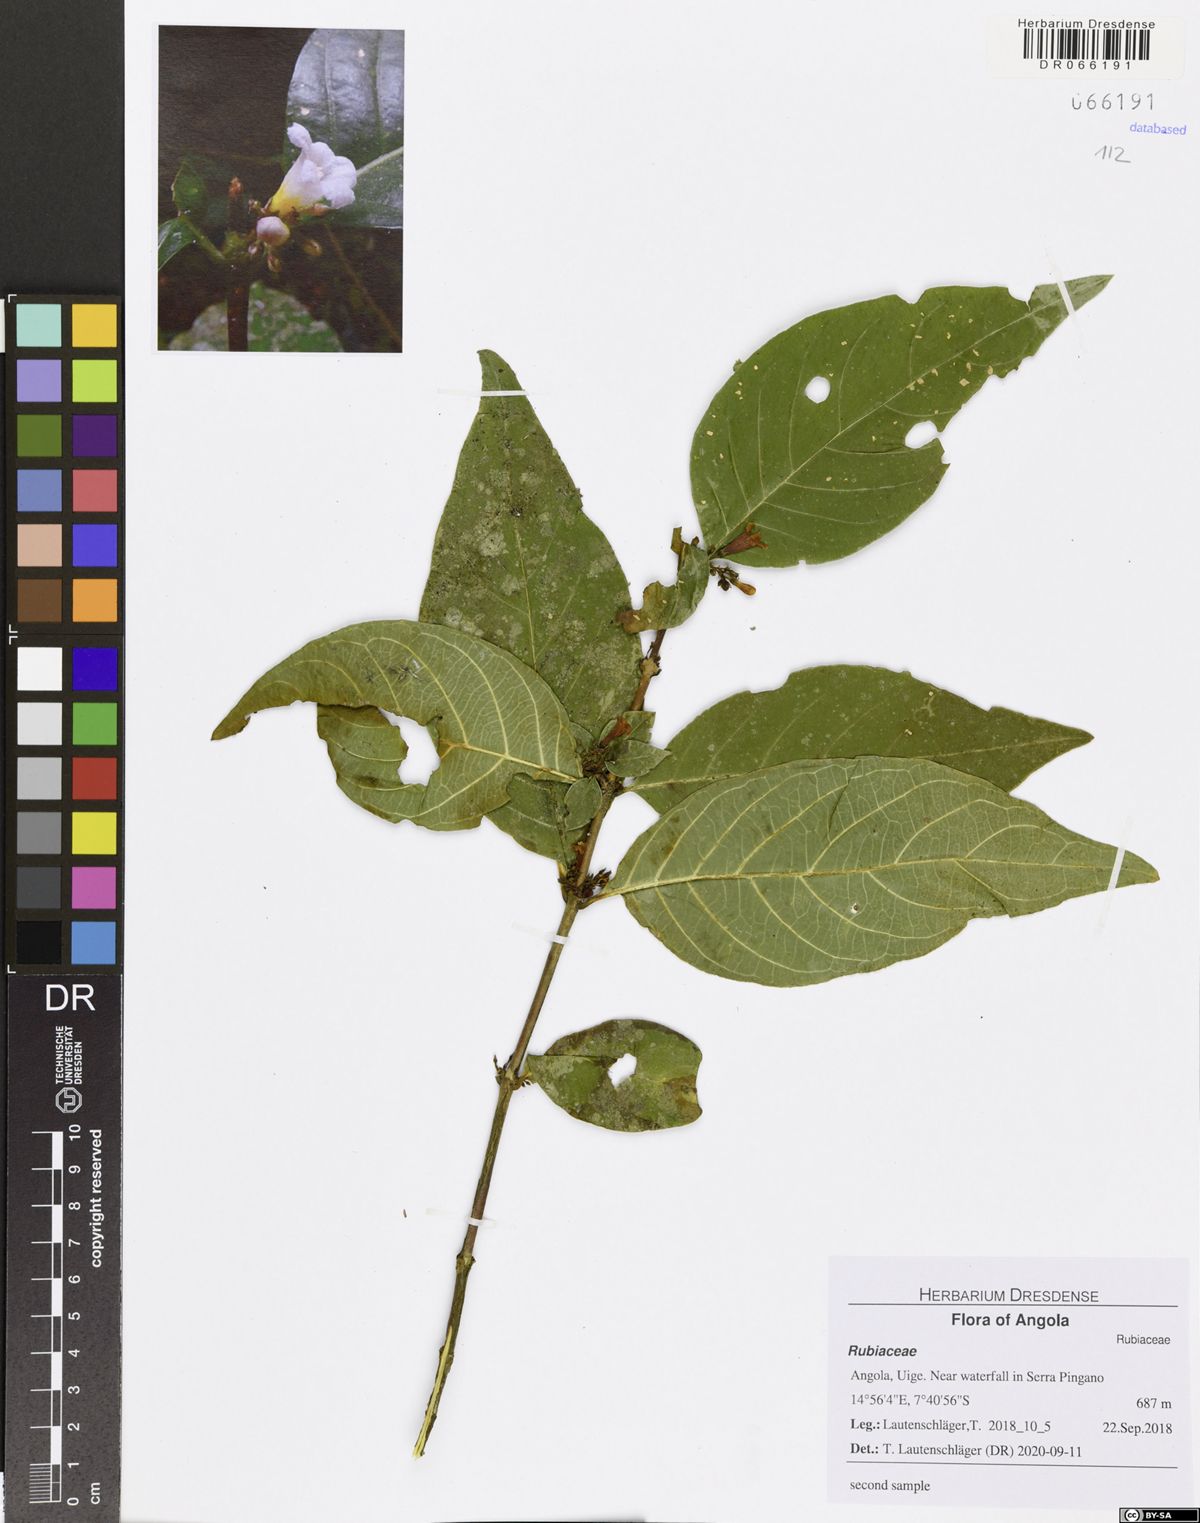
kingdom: Plantae
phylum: Tracheophyta
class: Magnoliopsida
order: Gentianales
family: Gelsemiaceae
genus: Mostuea
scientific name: Mostuea brunonis
